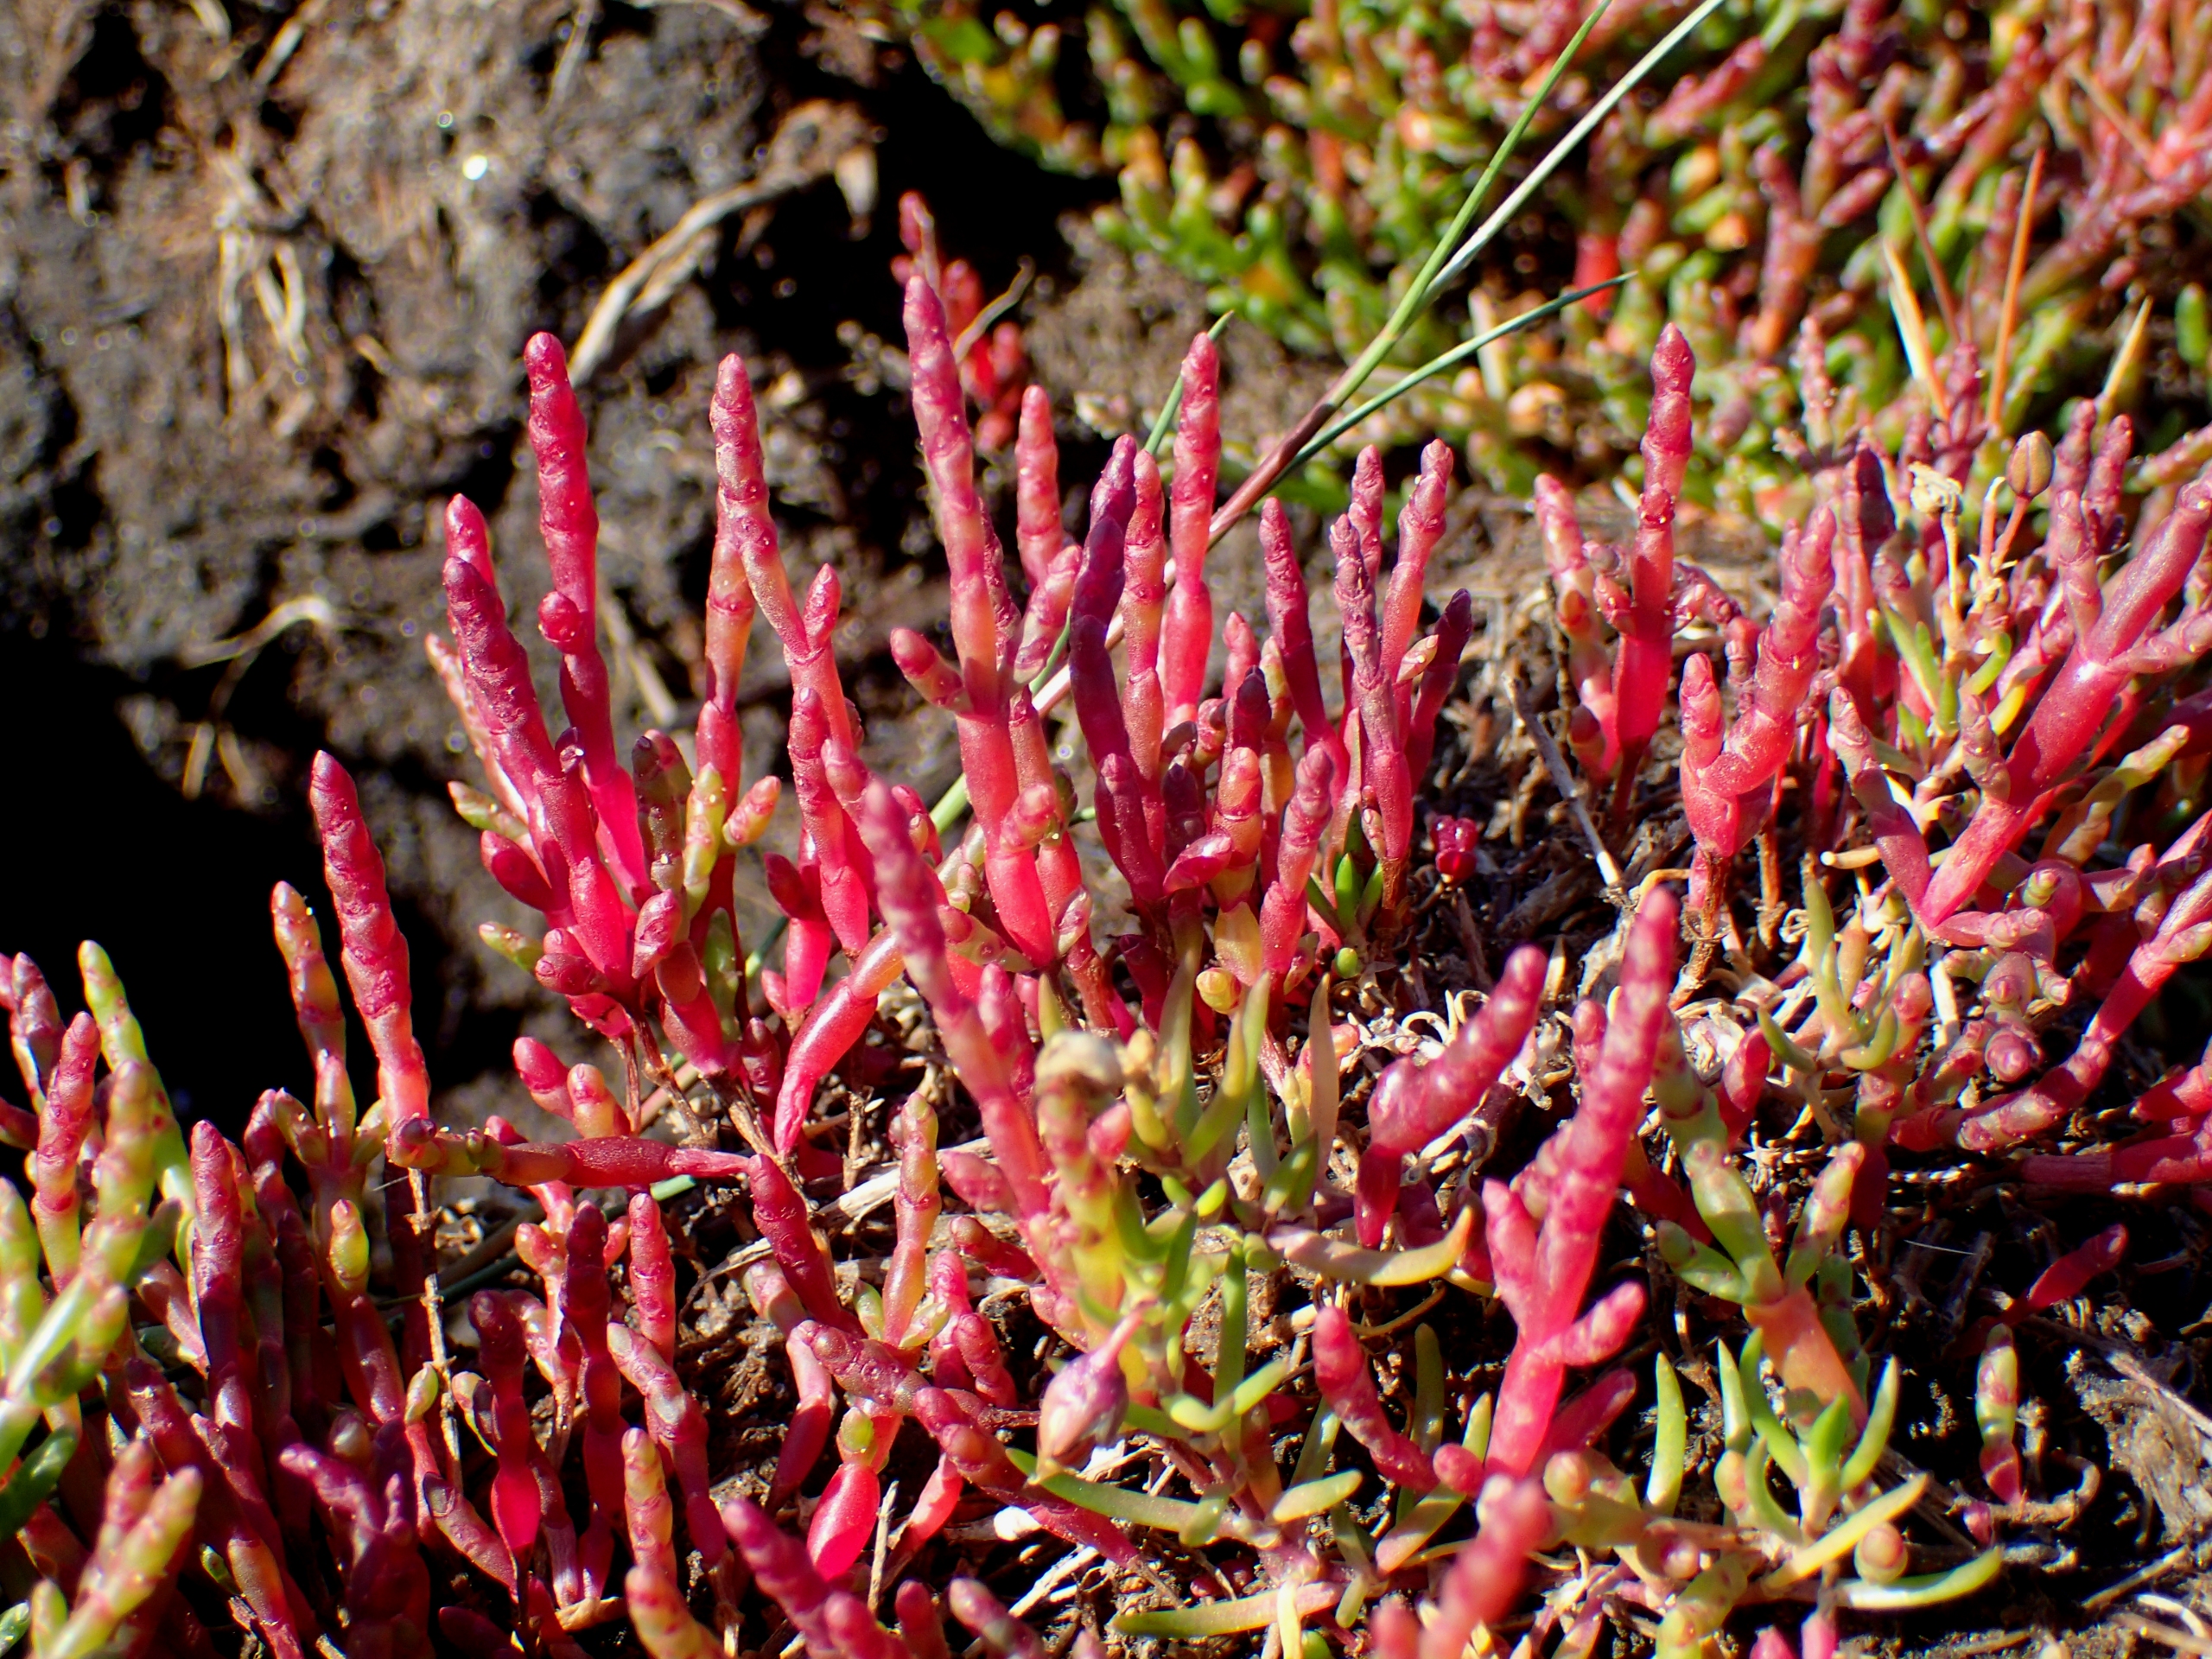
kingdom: Plantae
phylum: Tracheophyta
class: Magnoliopsida
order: Caryophyllales
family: Amaranthaceae
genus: Salicornia
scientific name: Salicornia europaea
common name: Almindelig salturt
